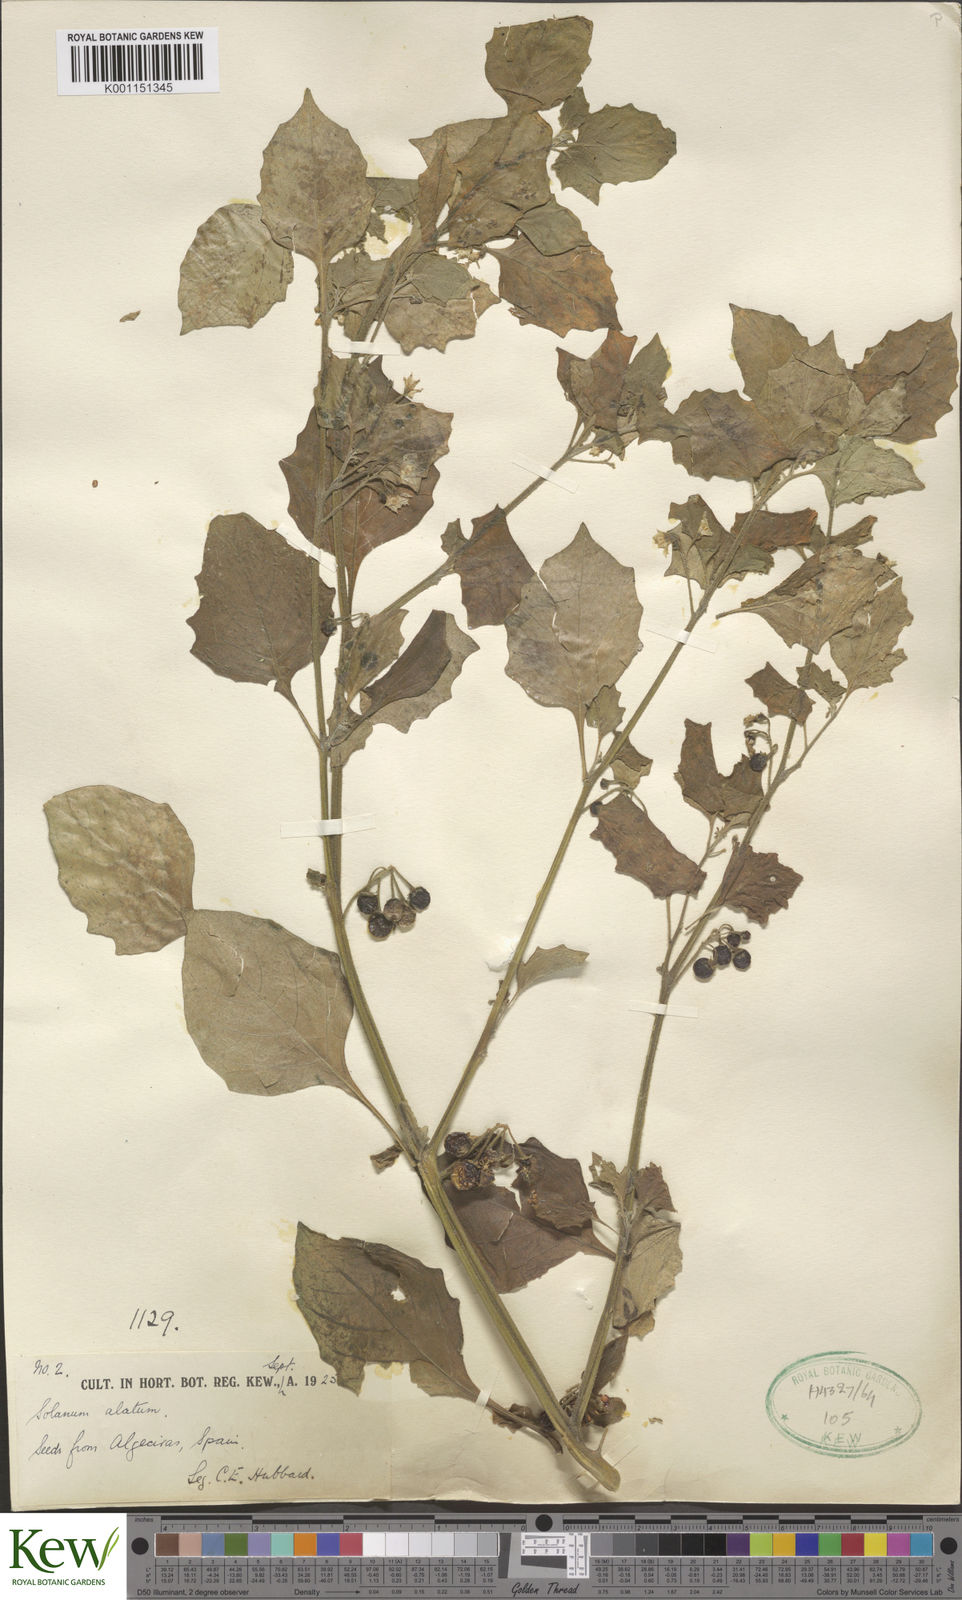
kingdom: Plantae
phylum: Tracheophyta
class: Magnoliopsida
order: Solanales
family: Solanaceae
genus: Solanum
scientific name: Solanum alatum
